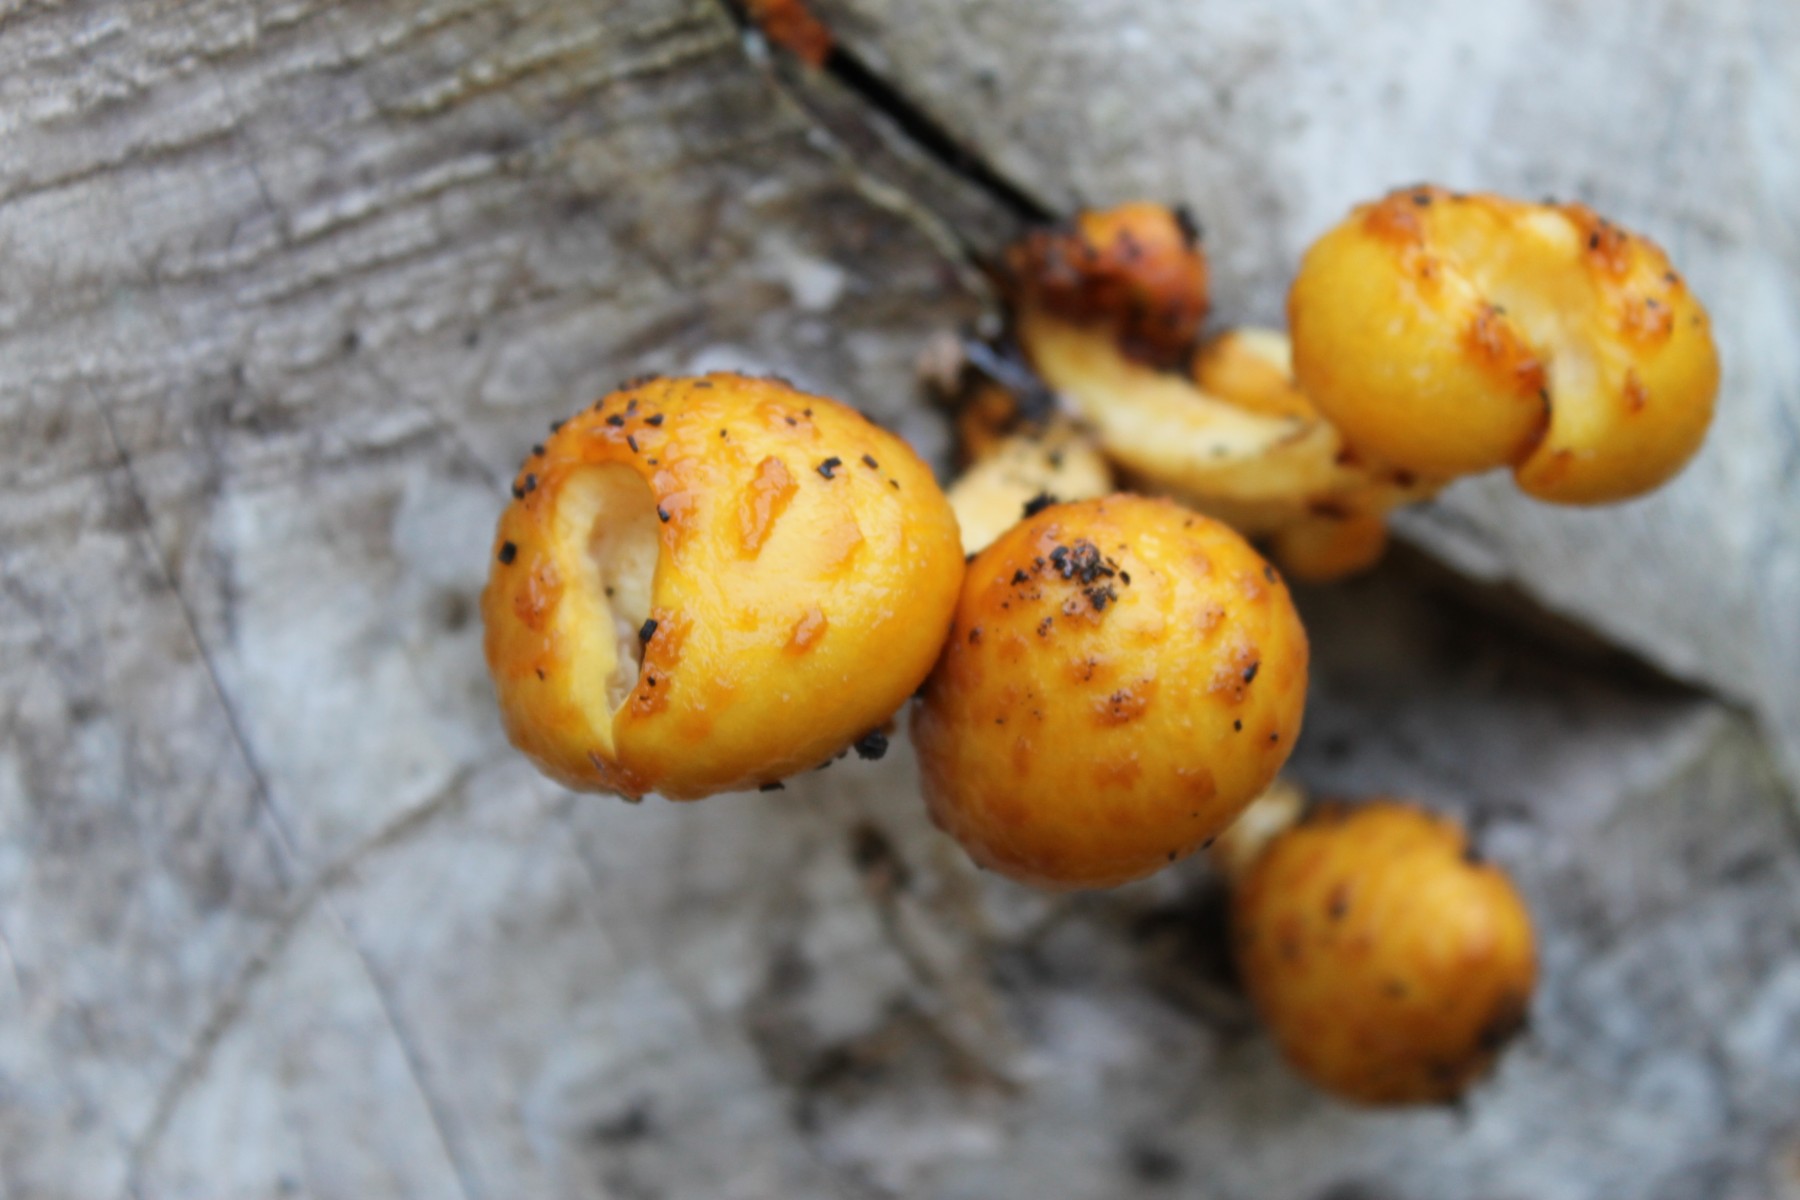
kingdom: Fungi
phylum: Basidiomycota
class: Agaricomycetes
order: Agaricales
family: Strophariaceae
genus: Pholiota
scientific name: Pholiota adiposa
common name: højtsiddende skælhat
